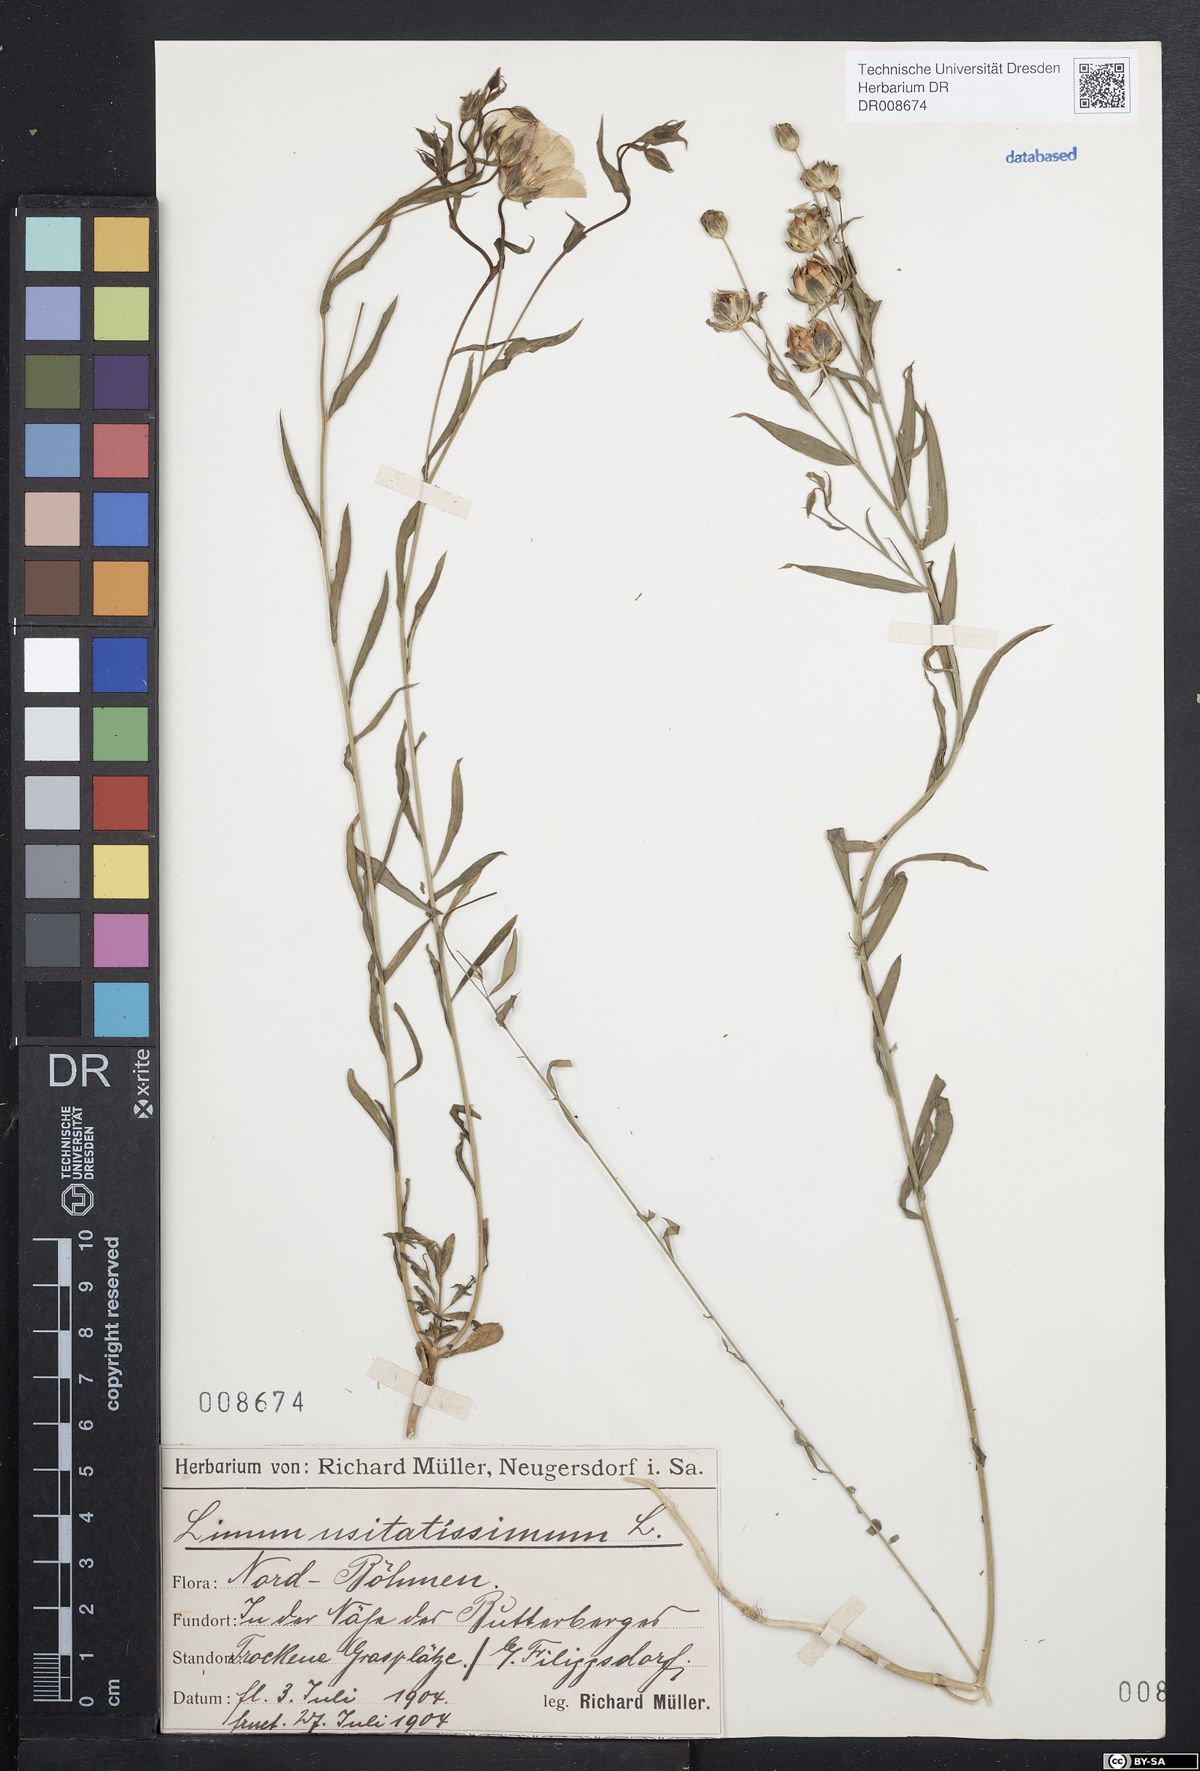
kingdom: Plantae
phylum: Tracheophyta
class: Magnoliopsida
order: Malpighiales
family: Linaceae
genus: Linum
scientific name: Linum usitatissimum
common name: Flax
